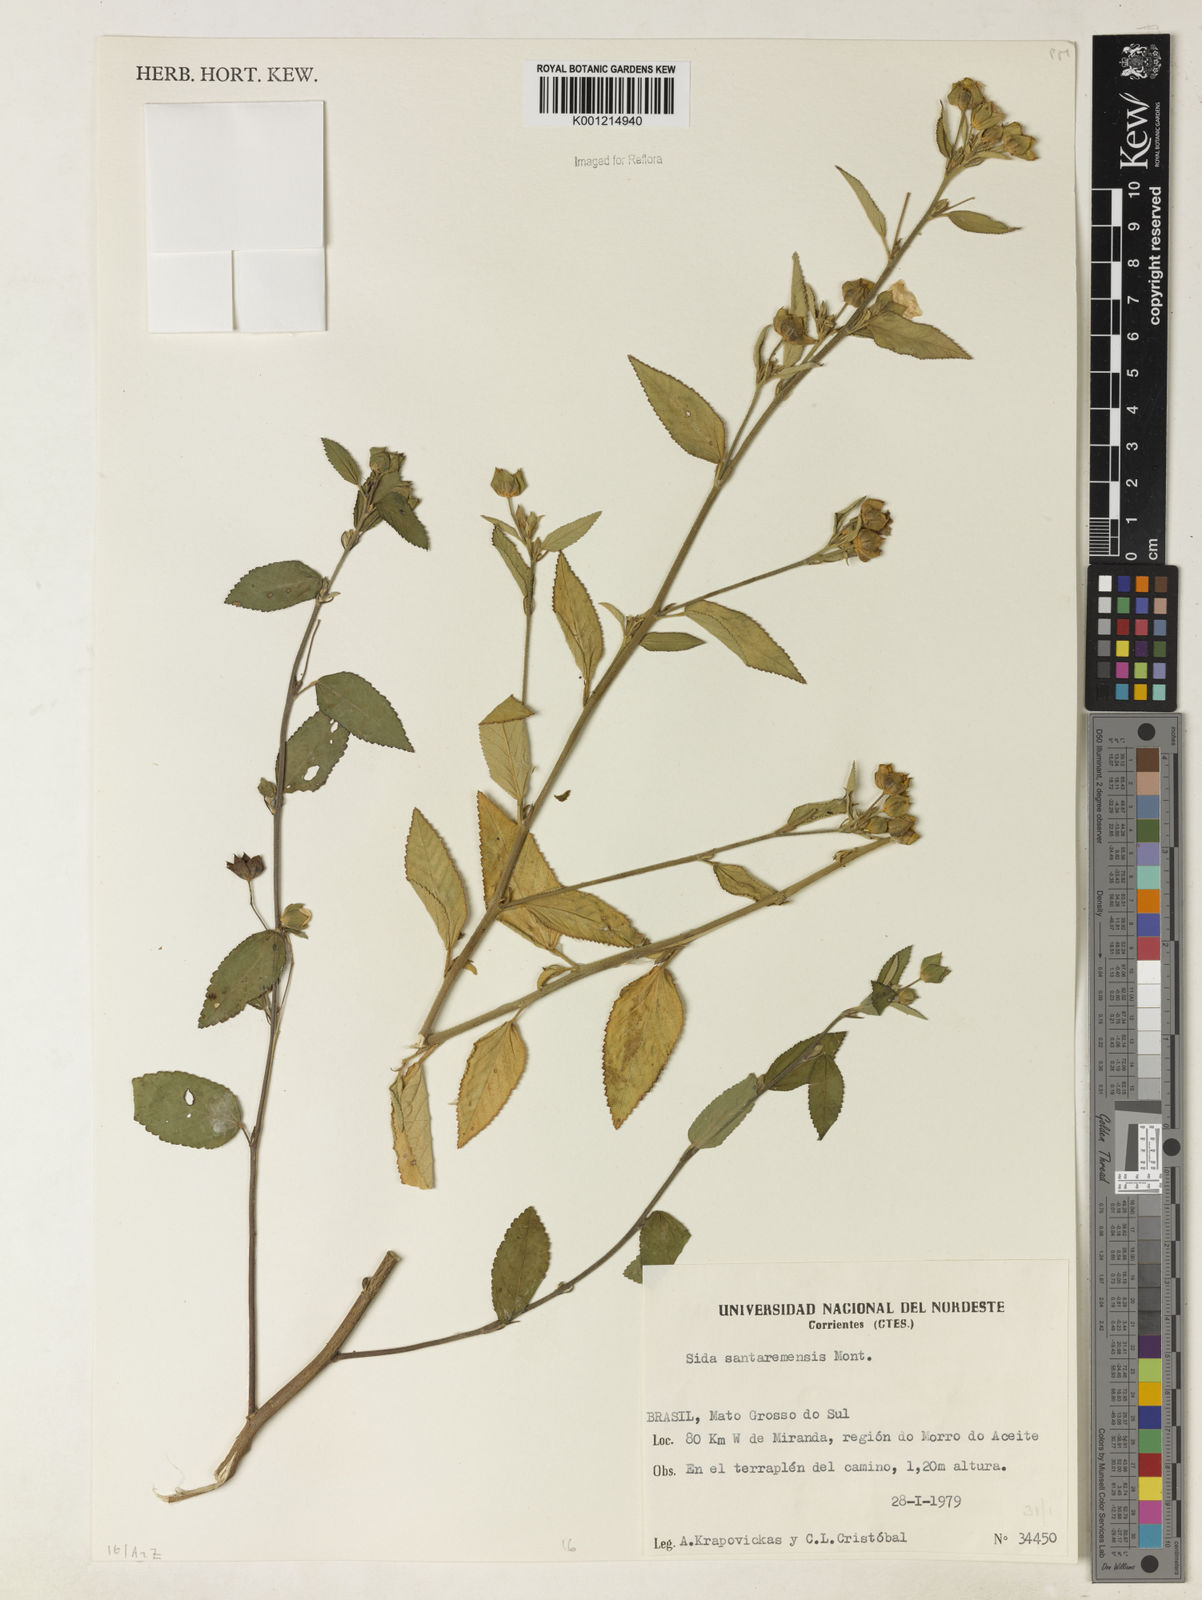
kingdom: Plantae
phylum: Tracheophyta
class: Magnoliopsida
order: Malvales
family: Malvaceae
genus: Sida
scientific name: Sida santaremensis
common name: Moth fanpetals
